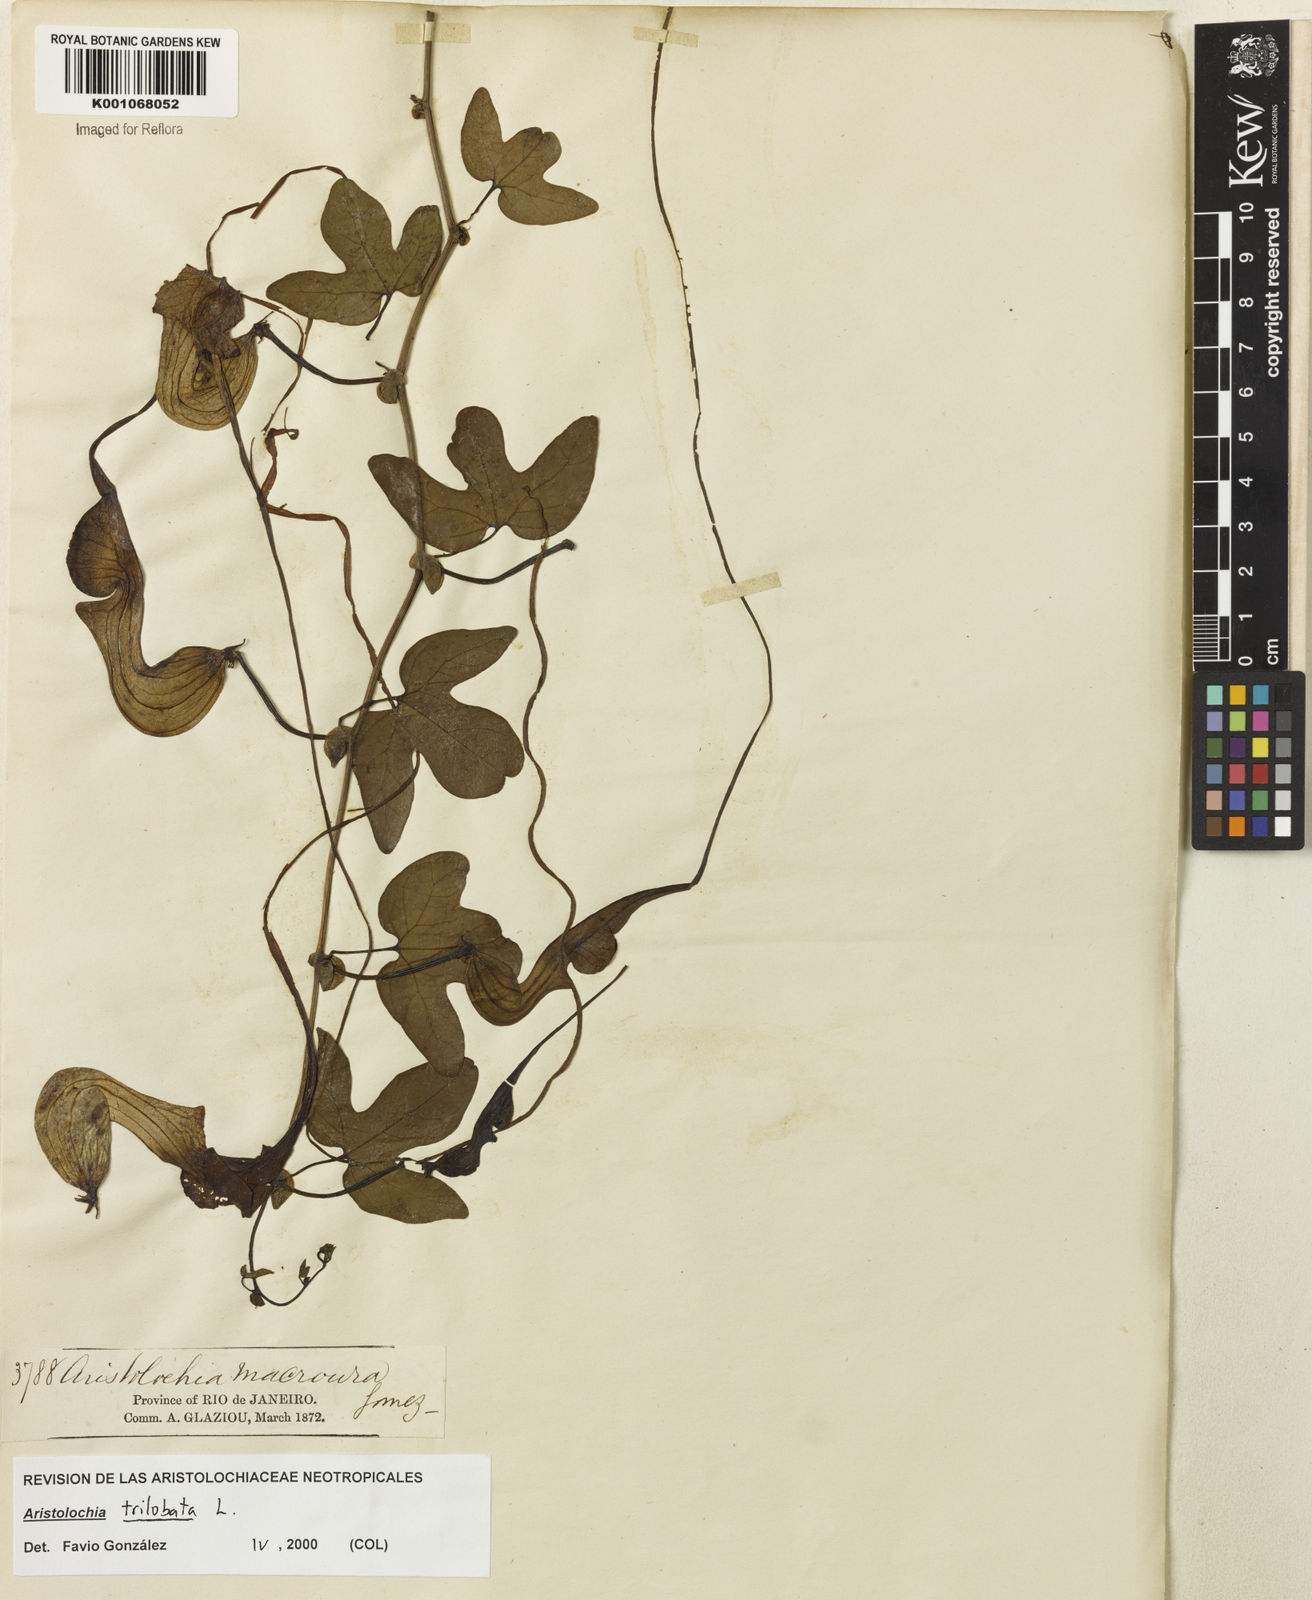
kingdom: Plantae
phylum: Tracheophyta
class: Magnoliopsida
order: Piperales
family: Aristolochiaceae
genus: Aristolochia
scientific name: Aristolochia trilobata
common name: Dutchman's pipe
